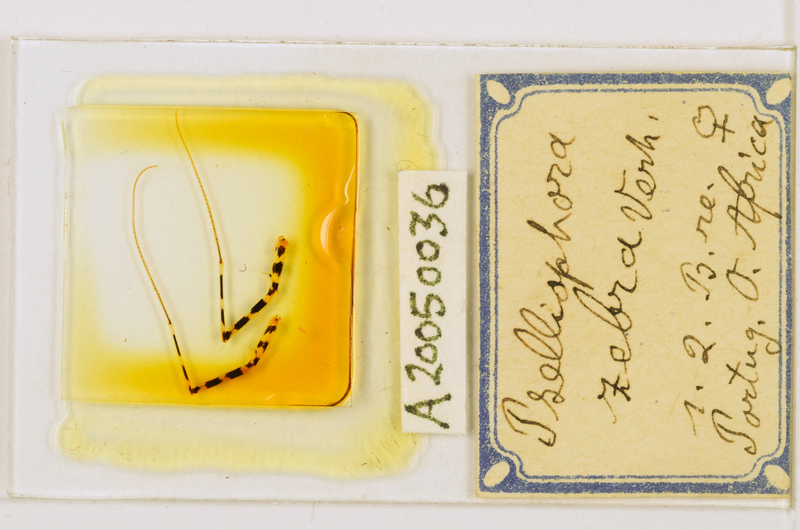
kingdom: Animalia
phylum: Arthropoda
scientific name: Arthropoda
